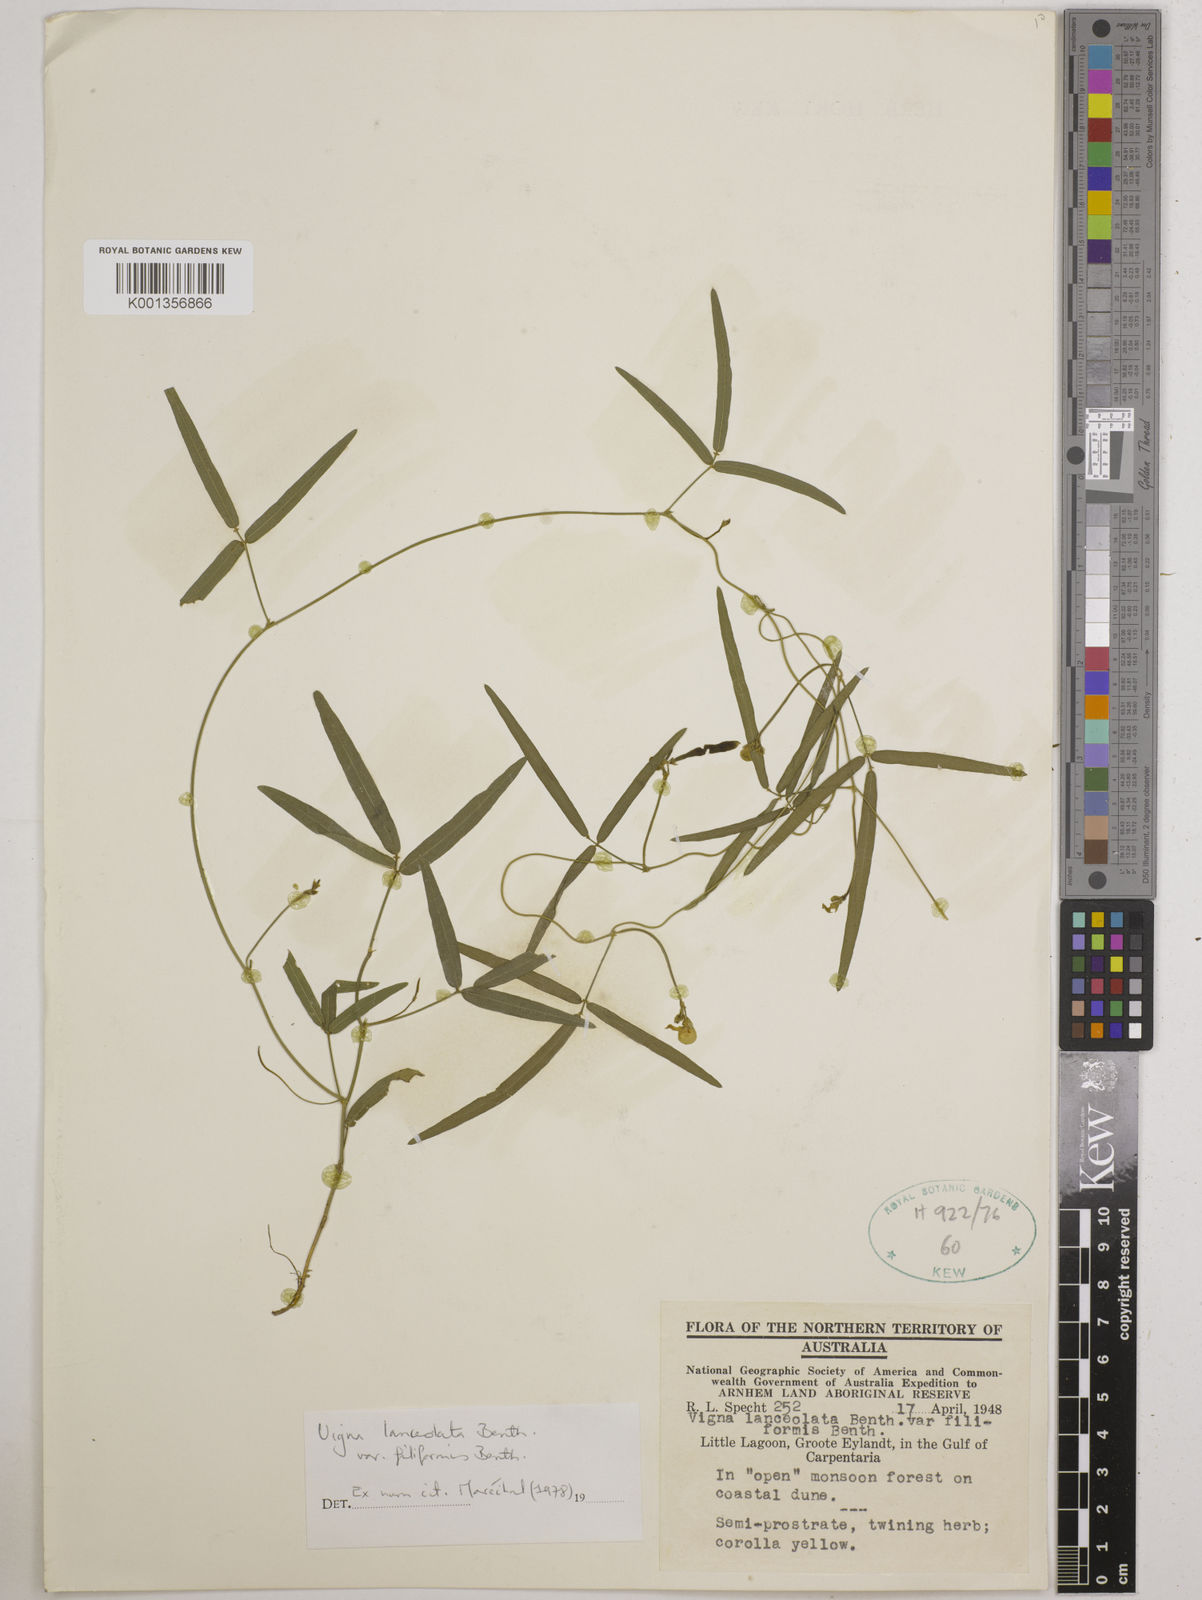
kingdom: Plantae
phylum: Tracheophyta
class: Magnoliopsida
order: Fabales
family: Fabaceae
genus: Vigna
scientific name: Vigna lanceolata
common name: Maloga-bean
